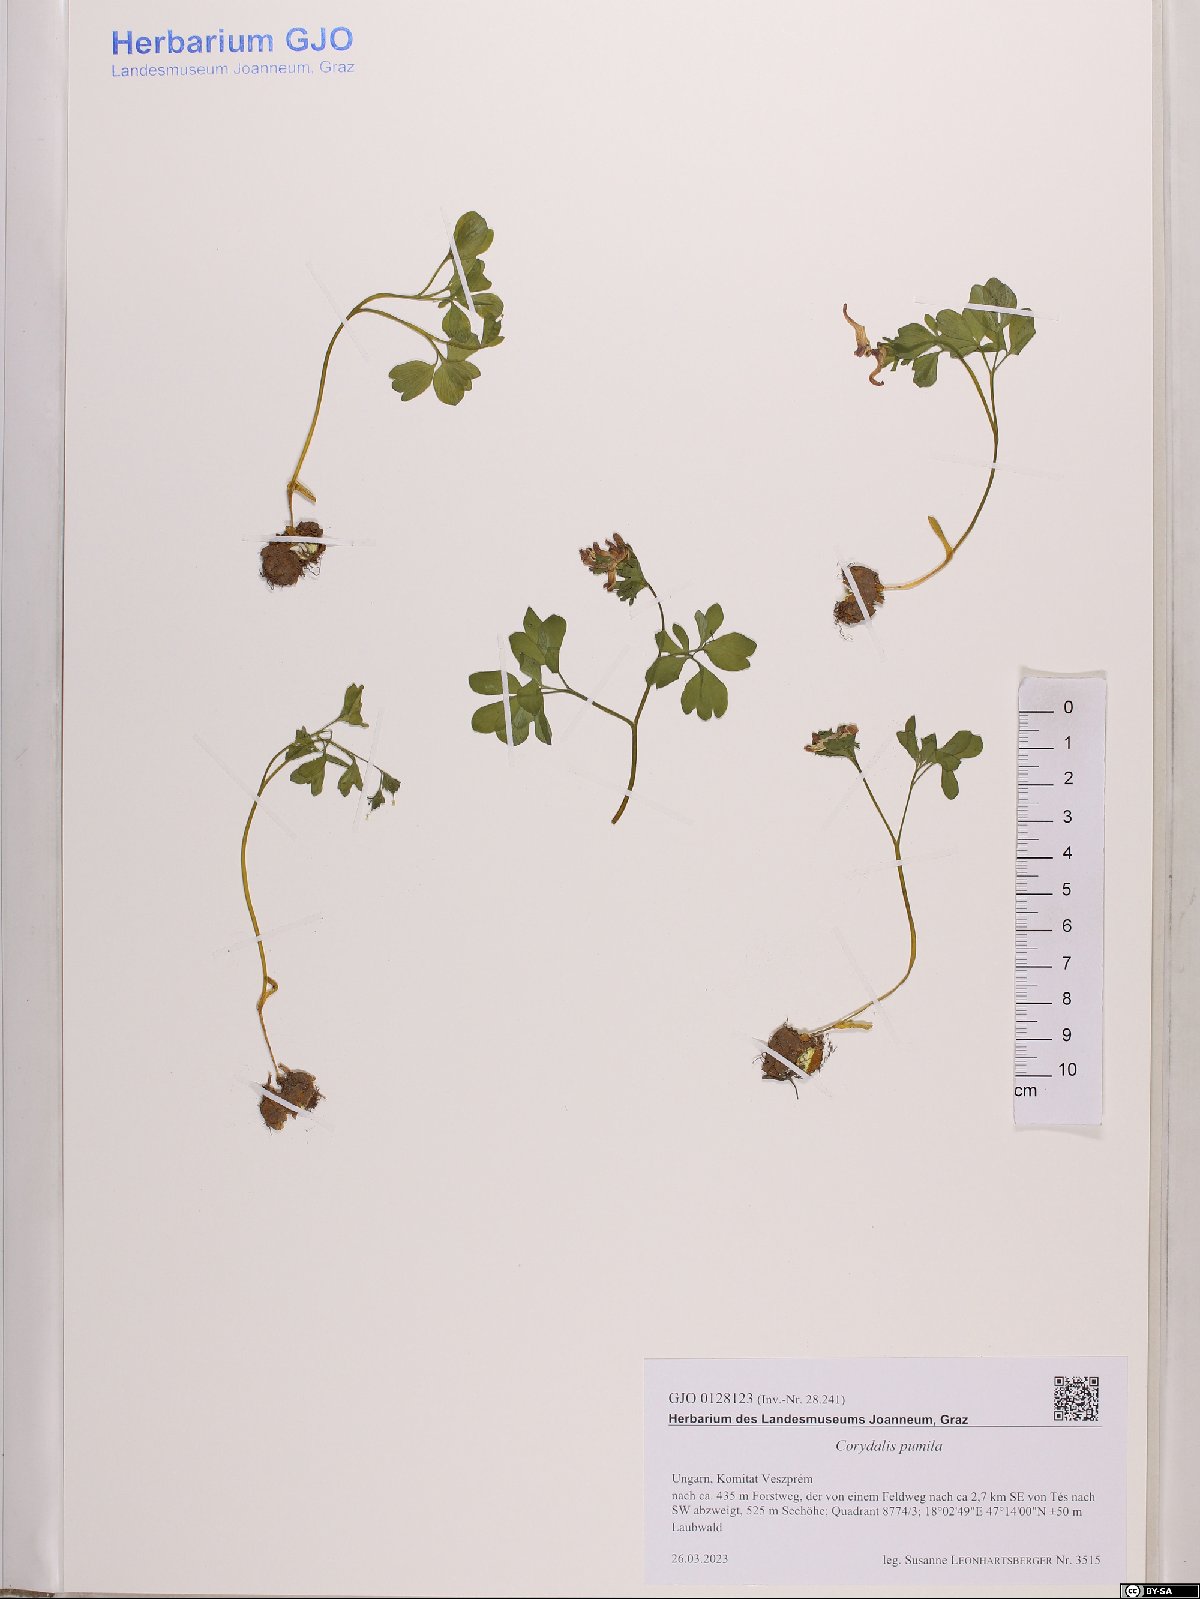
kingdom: Plantae
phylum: Tracheophyta
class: Magnoliopsida
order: Ranunculales
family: Papaveraceae
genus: Corydalis
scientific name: Corydalis pumila
